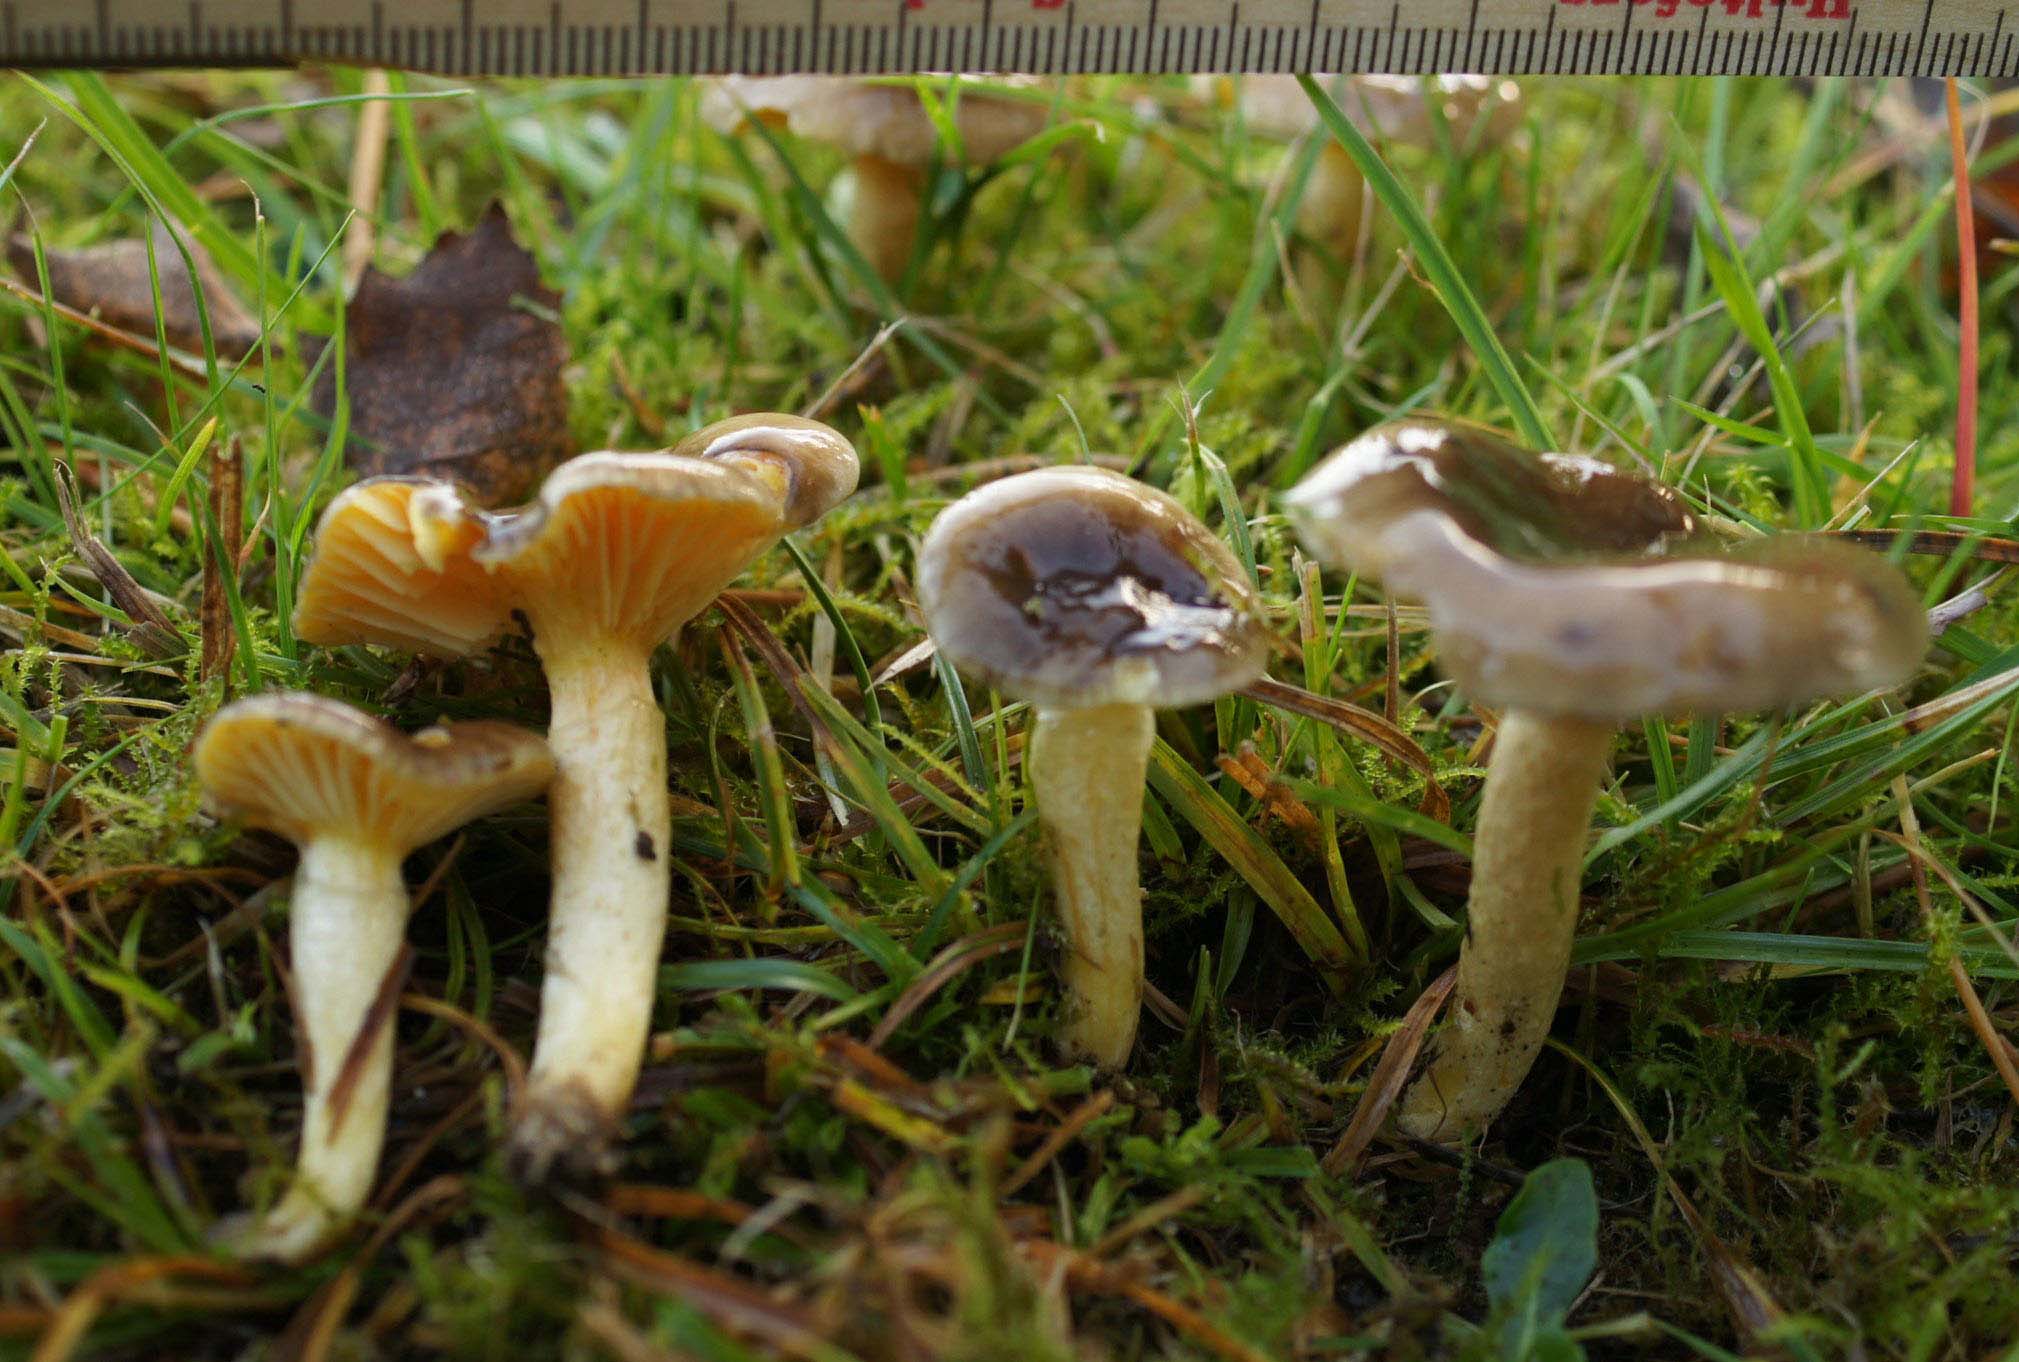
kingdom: Fungi
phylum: Basidiomycota
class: Agaricomycetes
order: Agaricales
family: Hygrophoraceae
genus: Hygrophorus
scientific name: Hygrophorus hypothejus
